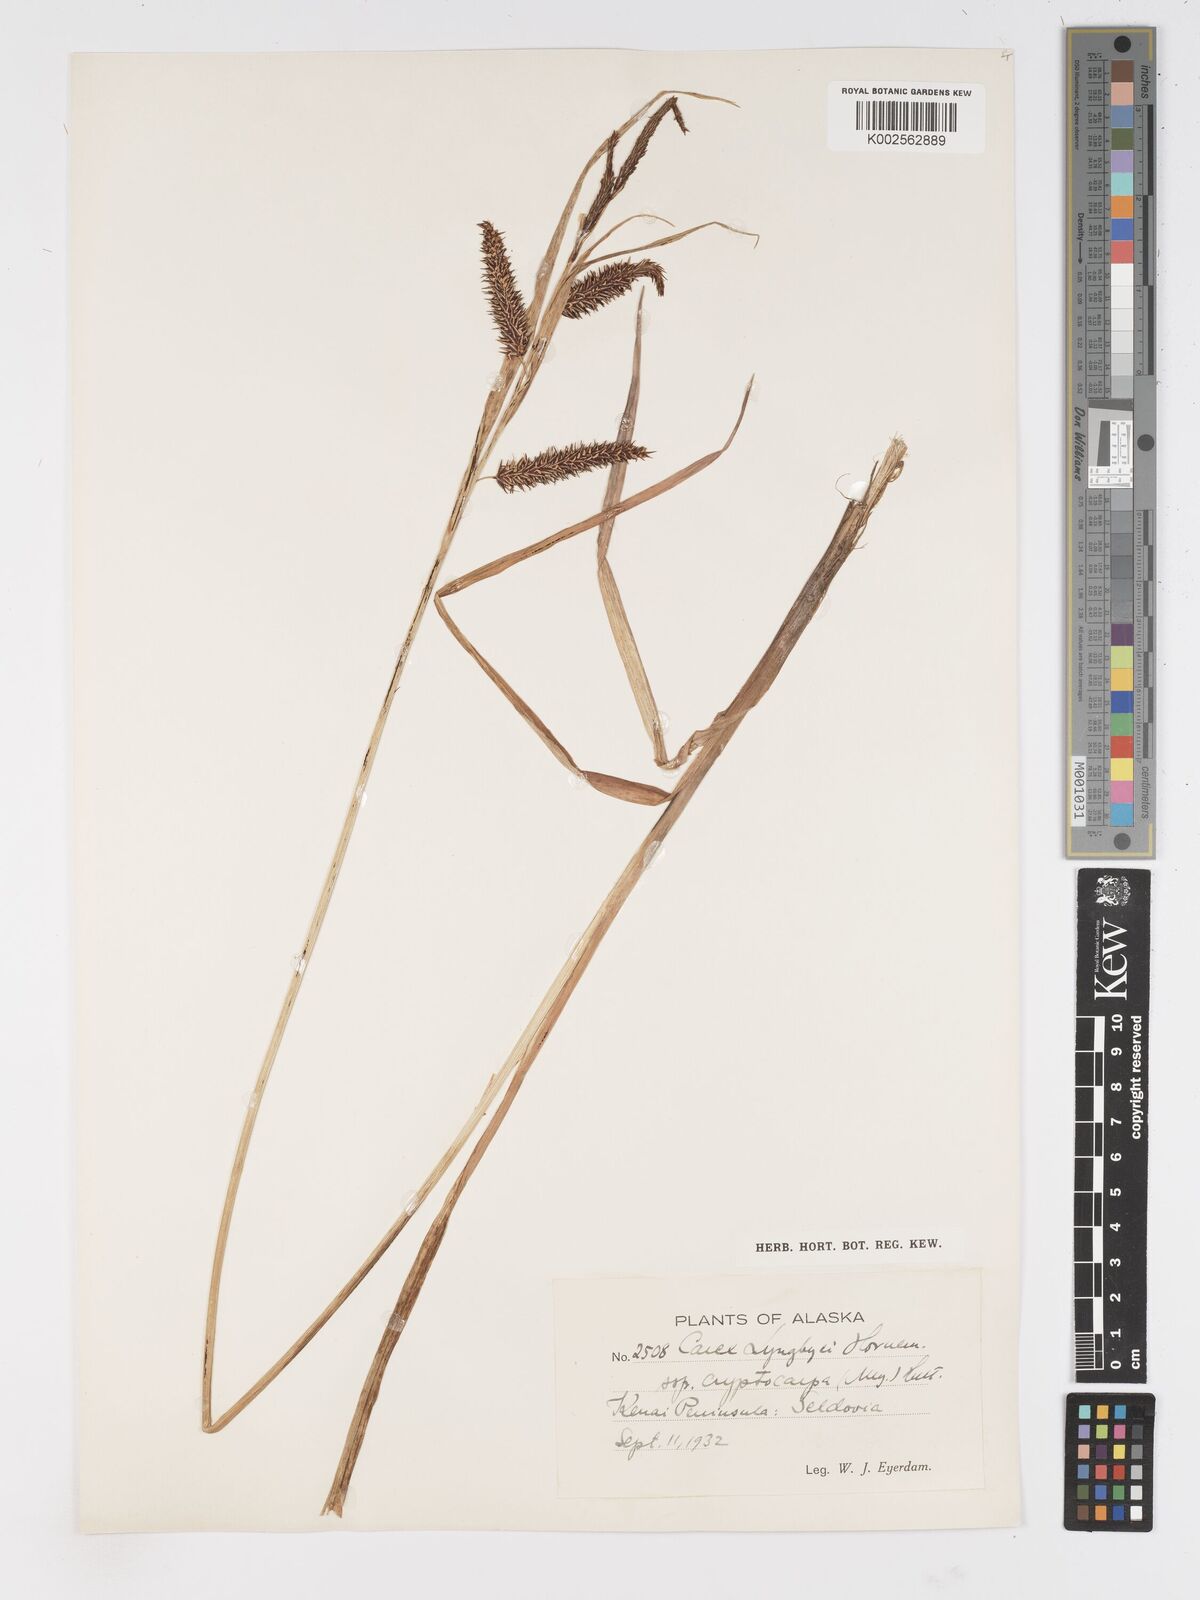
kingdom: Plantae
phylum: Tracheophyta
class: Liliopsida
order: Poales
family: Cyperaceae
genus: Carex
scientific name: Carex lyngbyei
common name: Lyngbye's sedge
